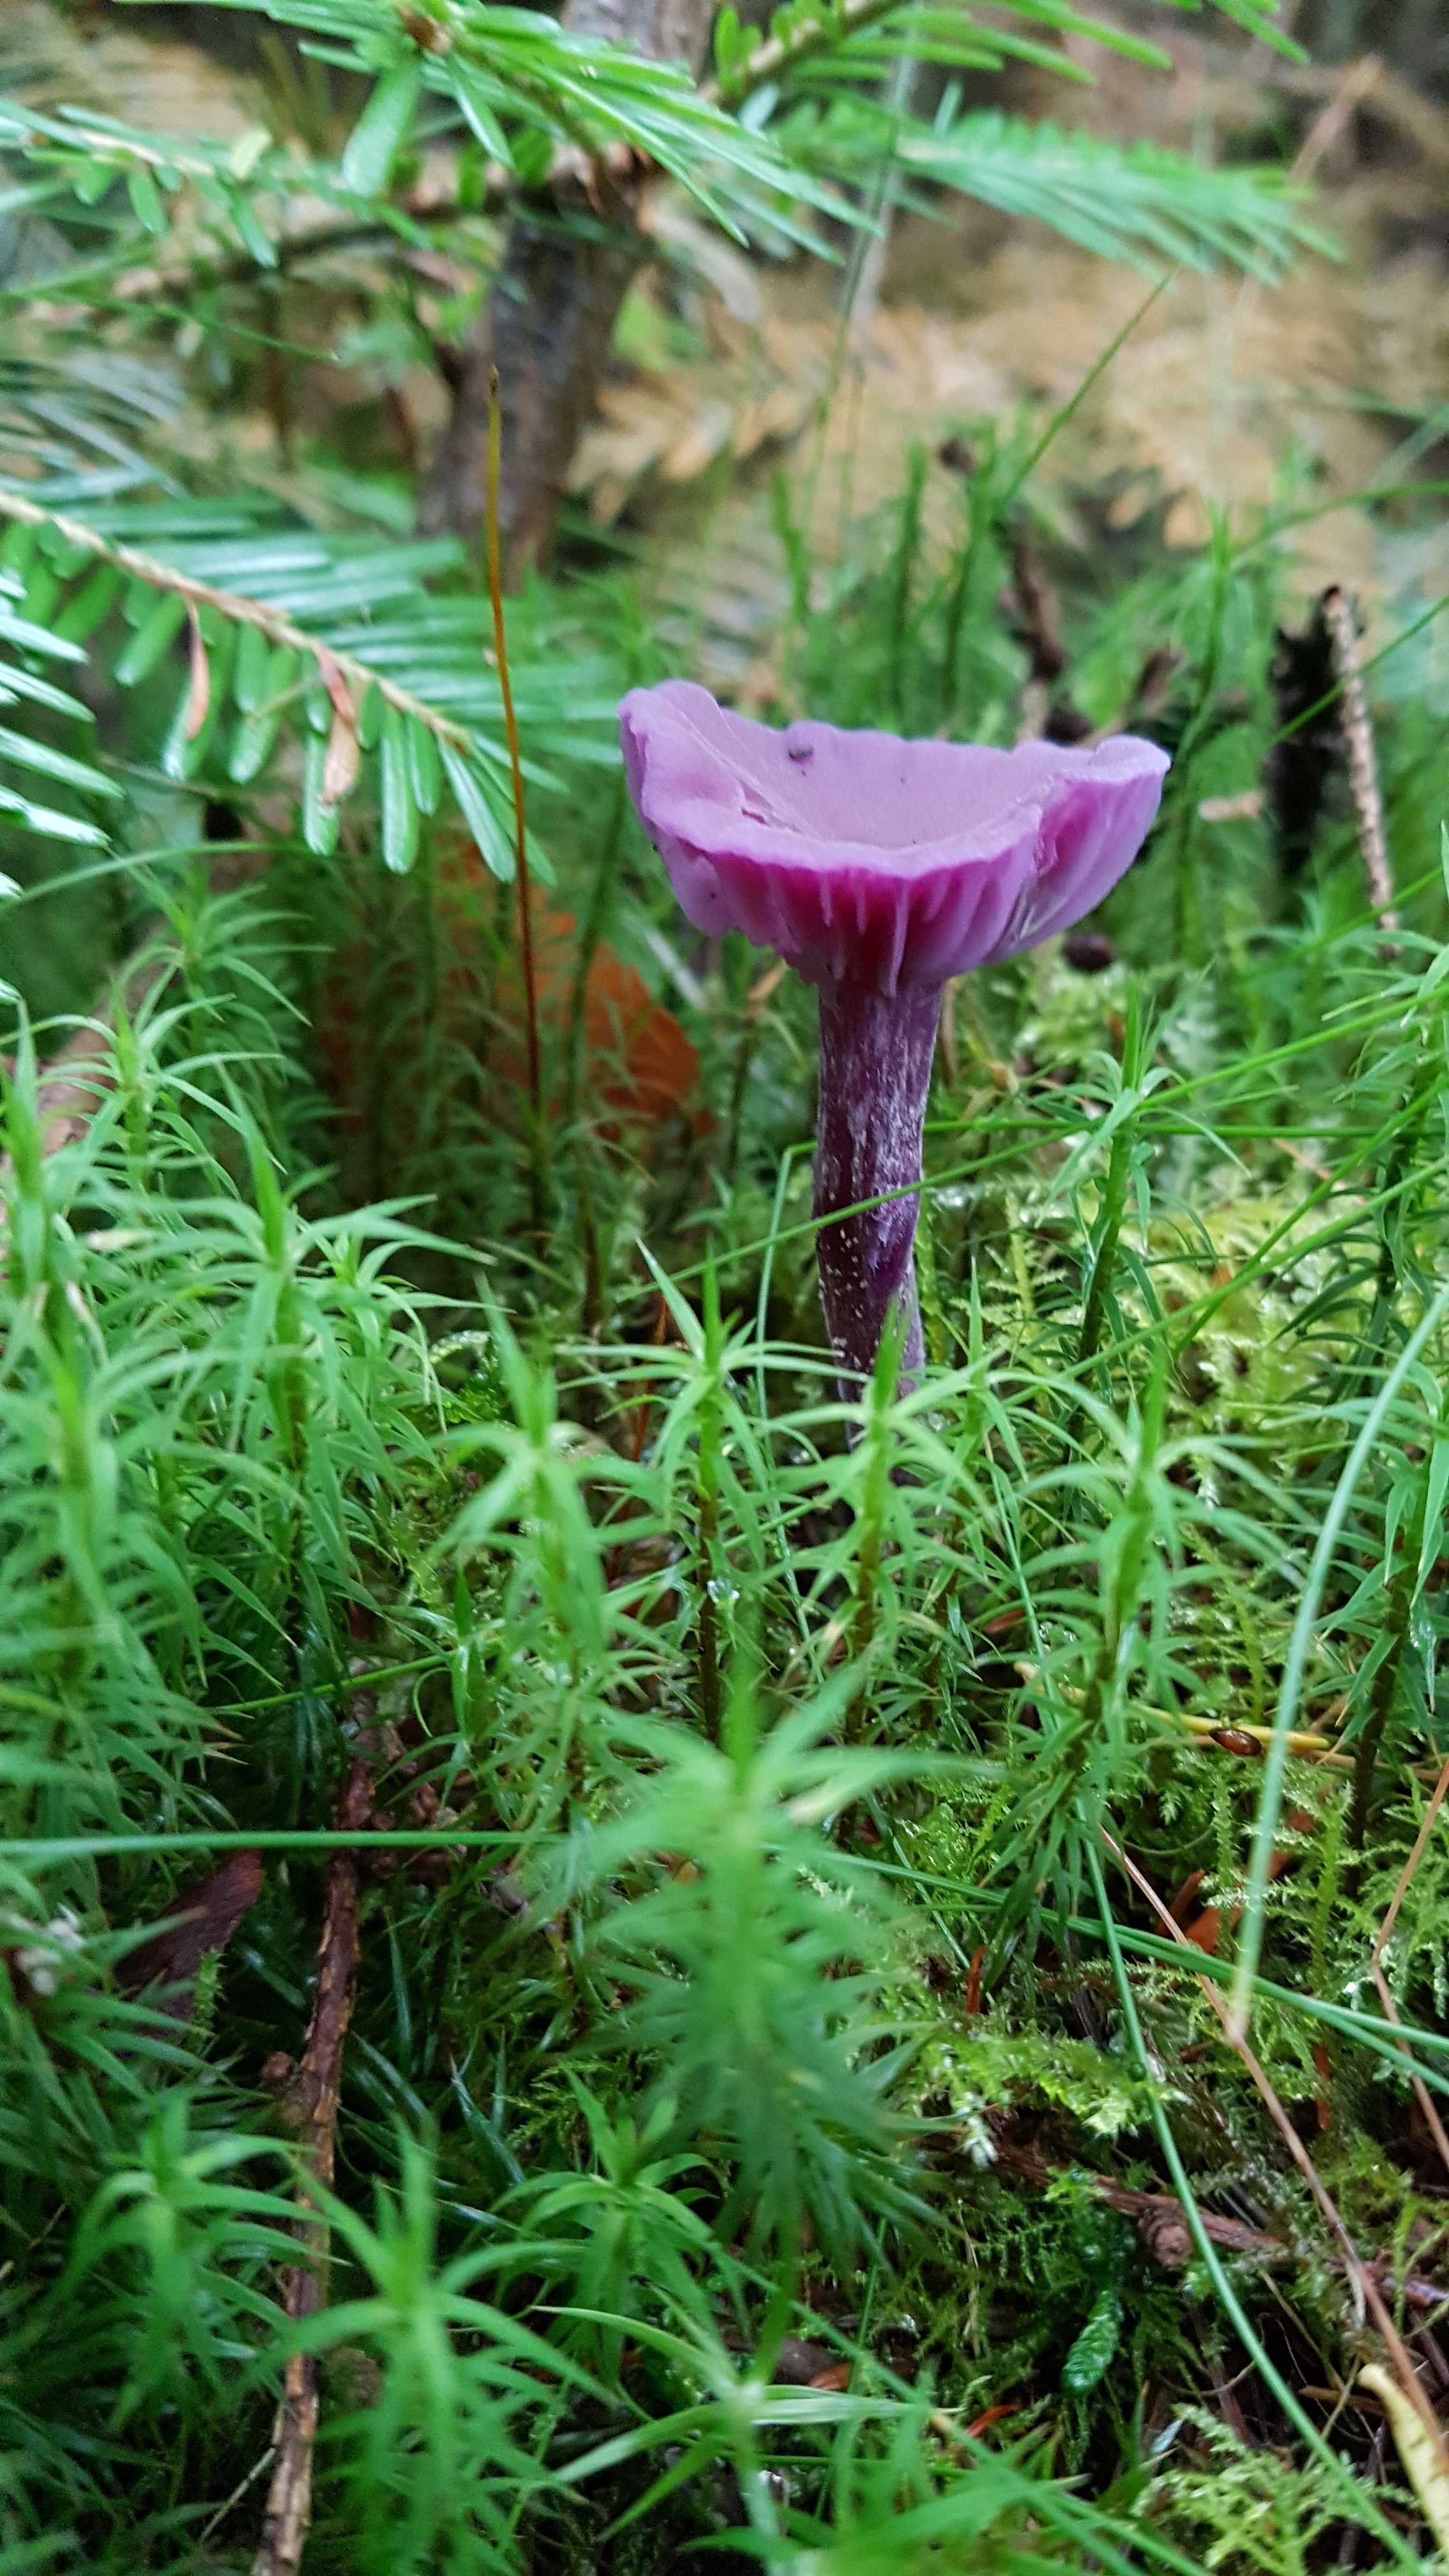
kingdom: Fungi
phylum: Basidiomycota
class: Agaricomycetes
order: Agaricales
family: Hydnangiaceae
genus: Laccaria
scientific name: Laccaria amethystina
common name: violet ametysthat
